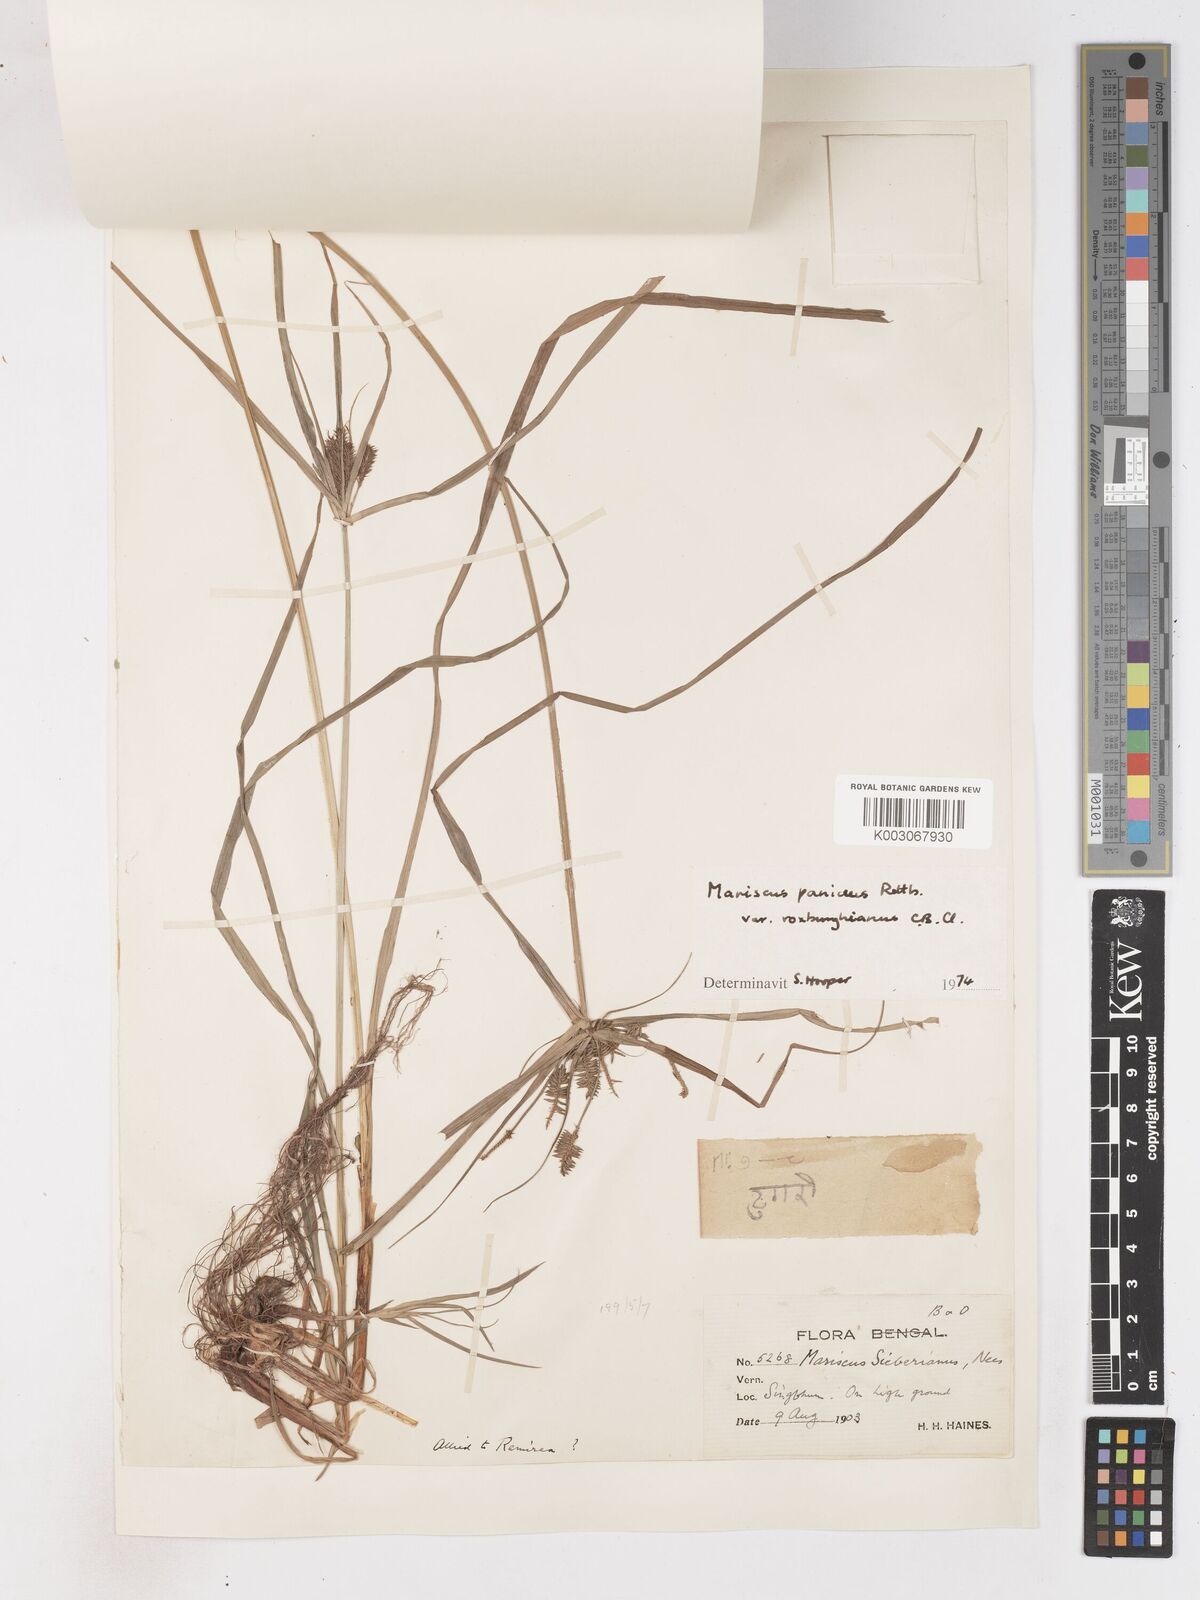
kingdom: Plantae
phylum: Tracheophyta
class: Liliopsida
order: Poales
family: Cyperaceae
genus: Cyperus
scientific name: Cyperus paniceus
